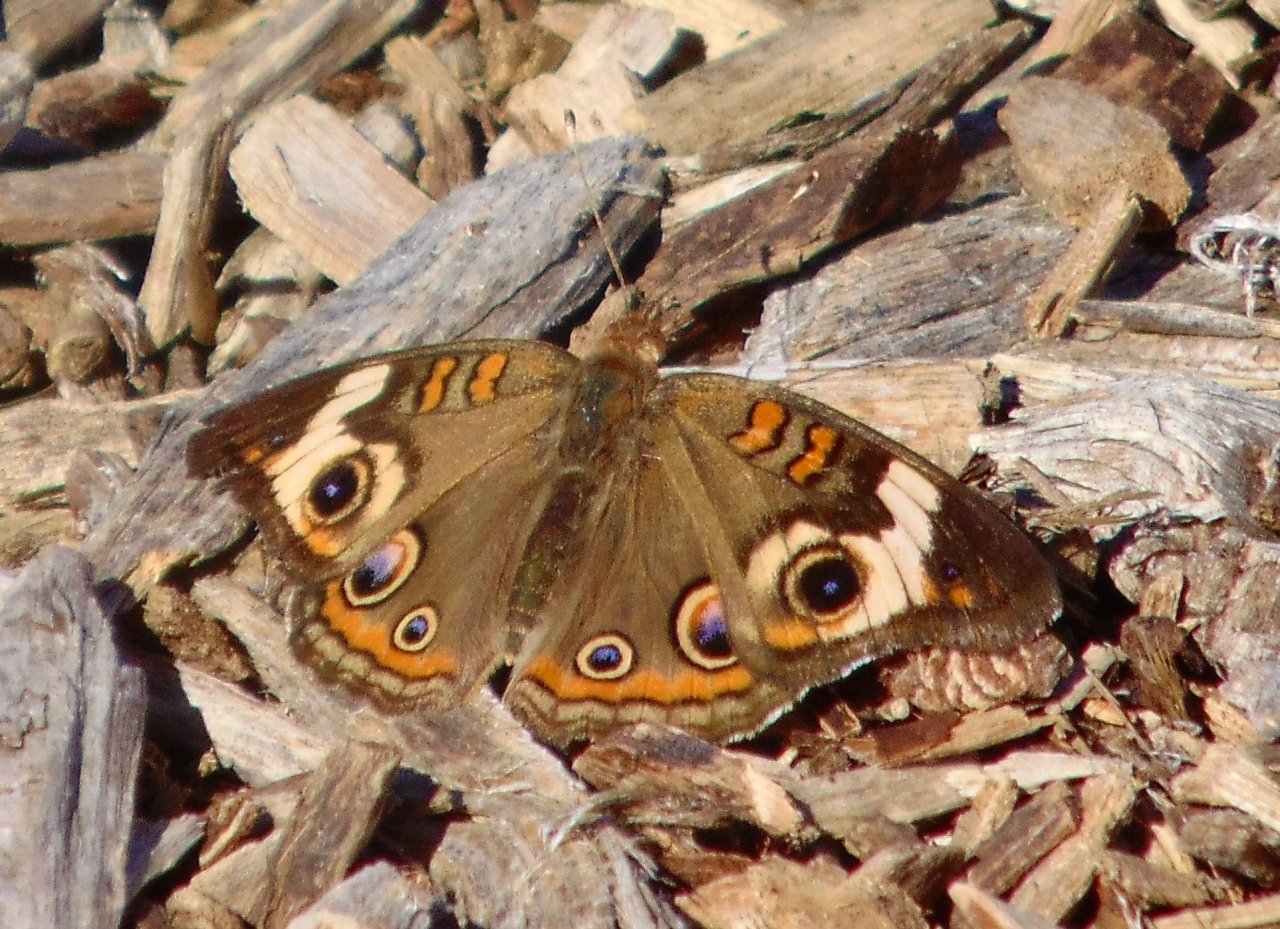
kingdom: Animalia
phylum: Arthropoda
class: Insecta
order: Lepidoptera
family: Nymphalidae
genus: Junonia
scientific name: Junonia coenia
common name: Common Buckeye
